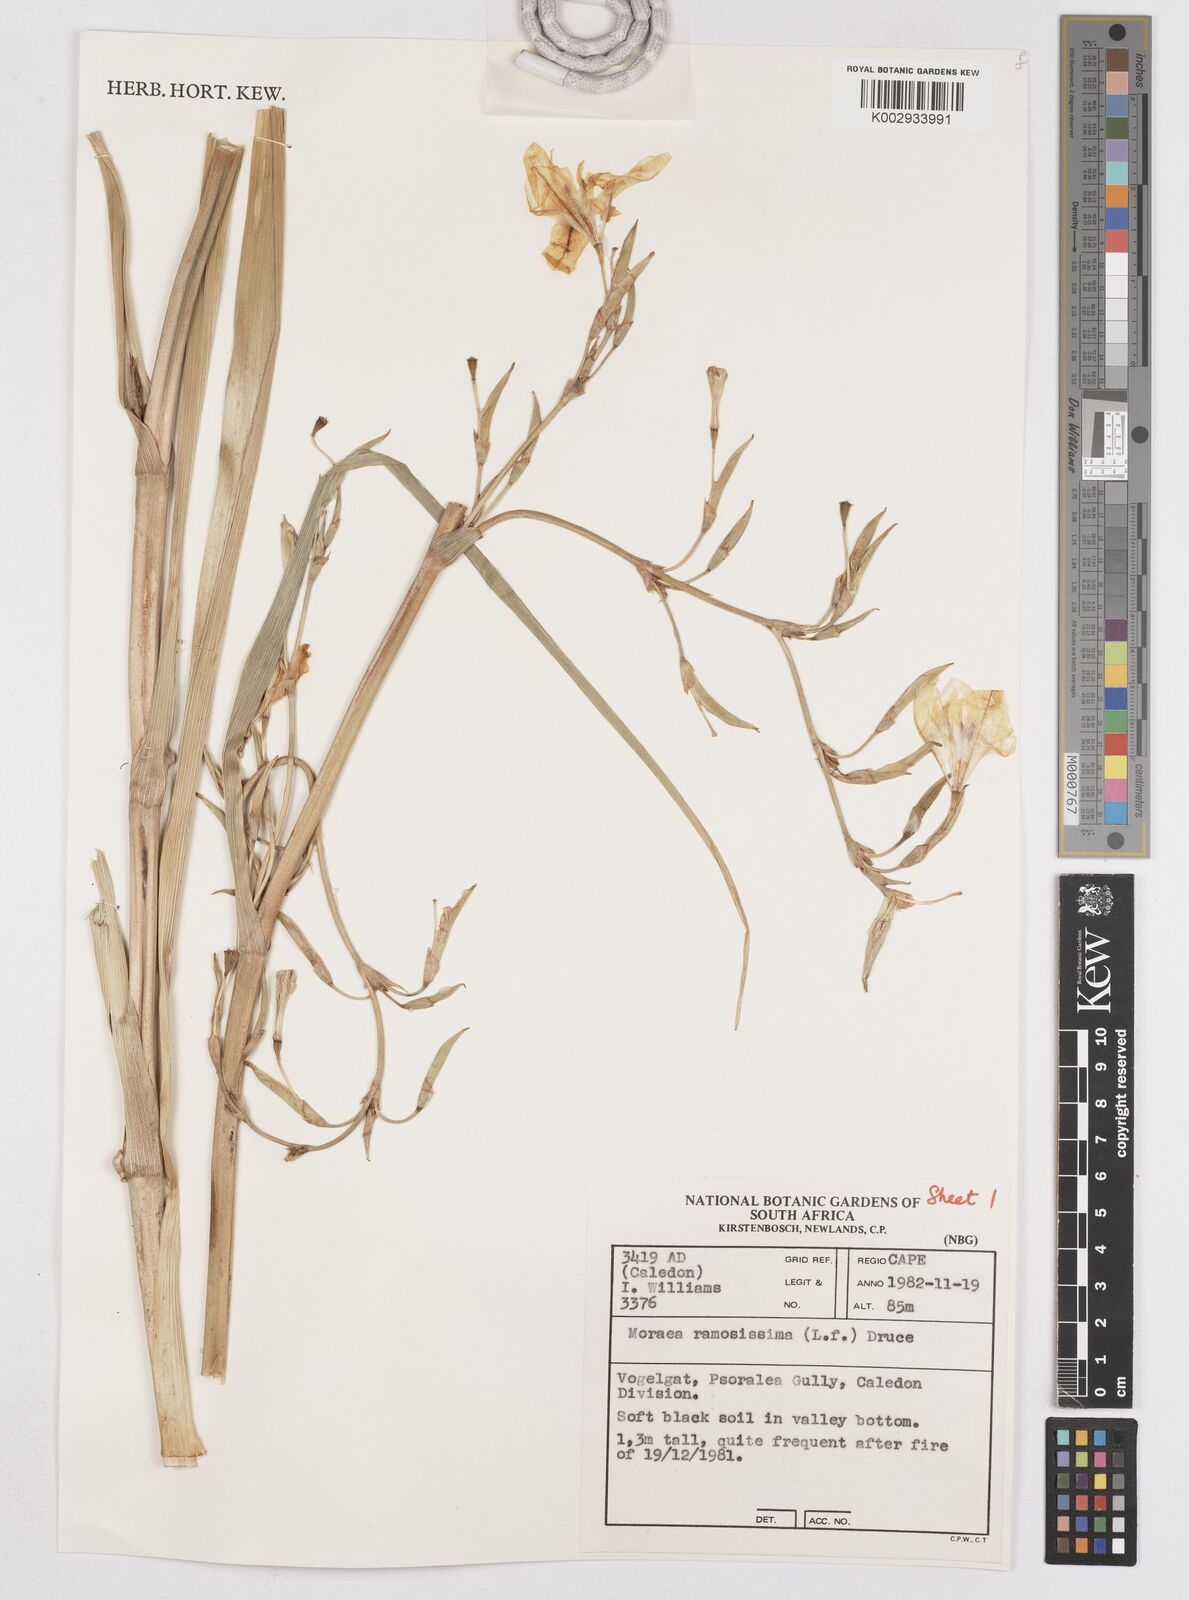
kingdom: Plantae
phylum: Tracheophyta
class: Liliopsida
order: Asparagales
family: Iridaceae
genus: Moraea
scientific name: Moraea ramosissima
